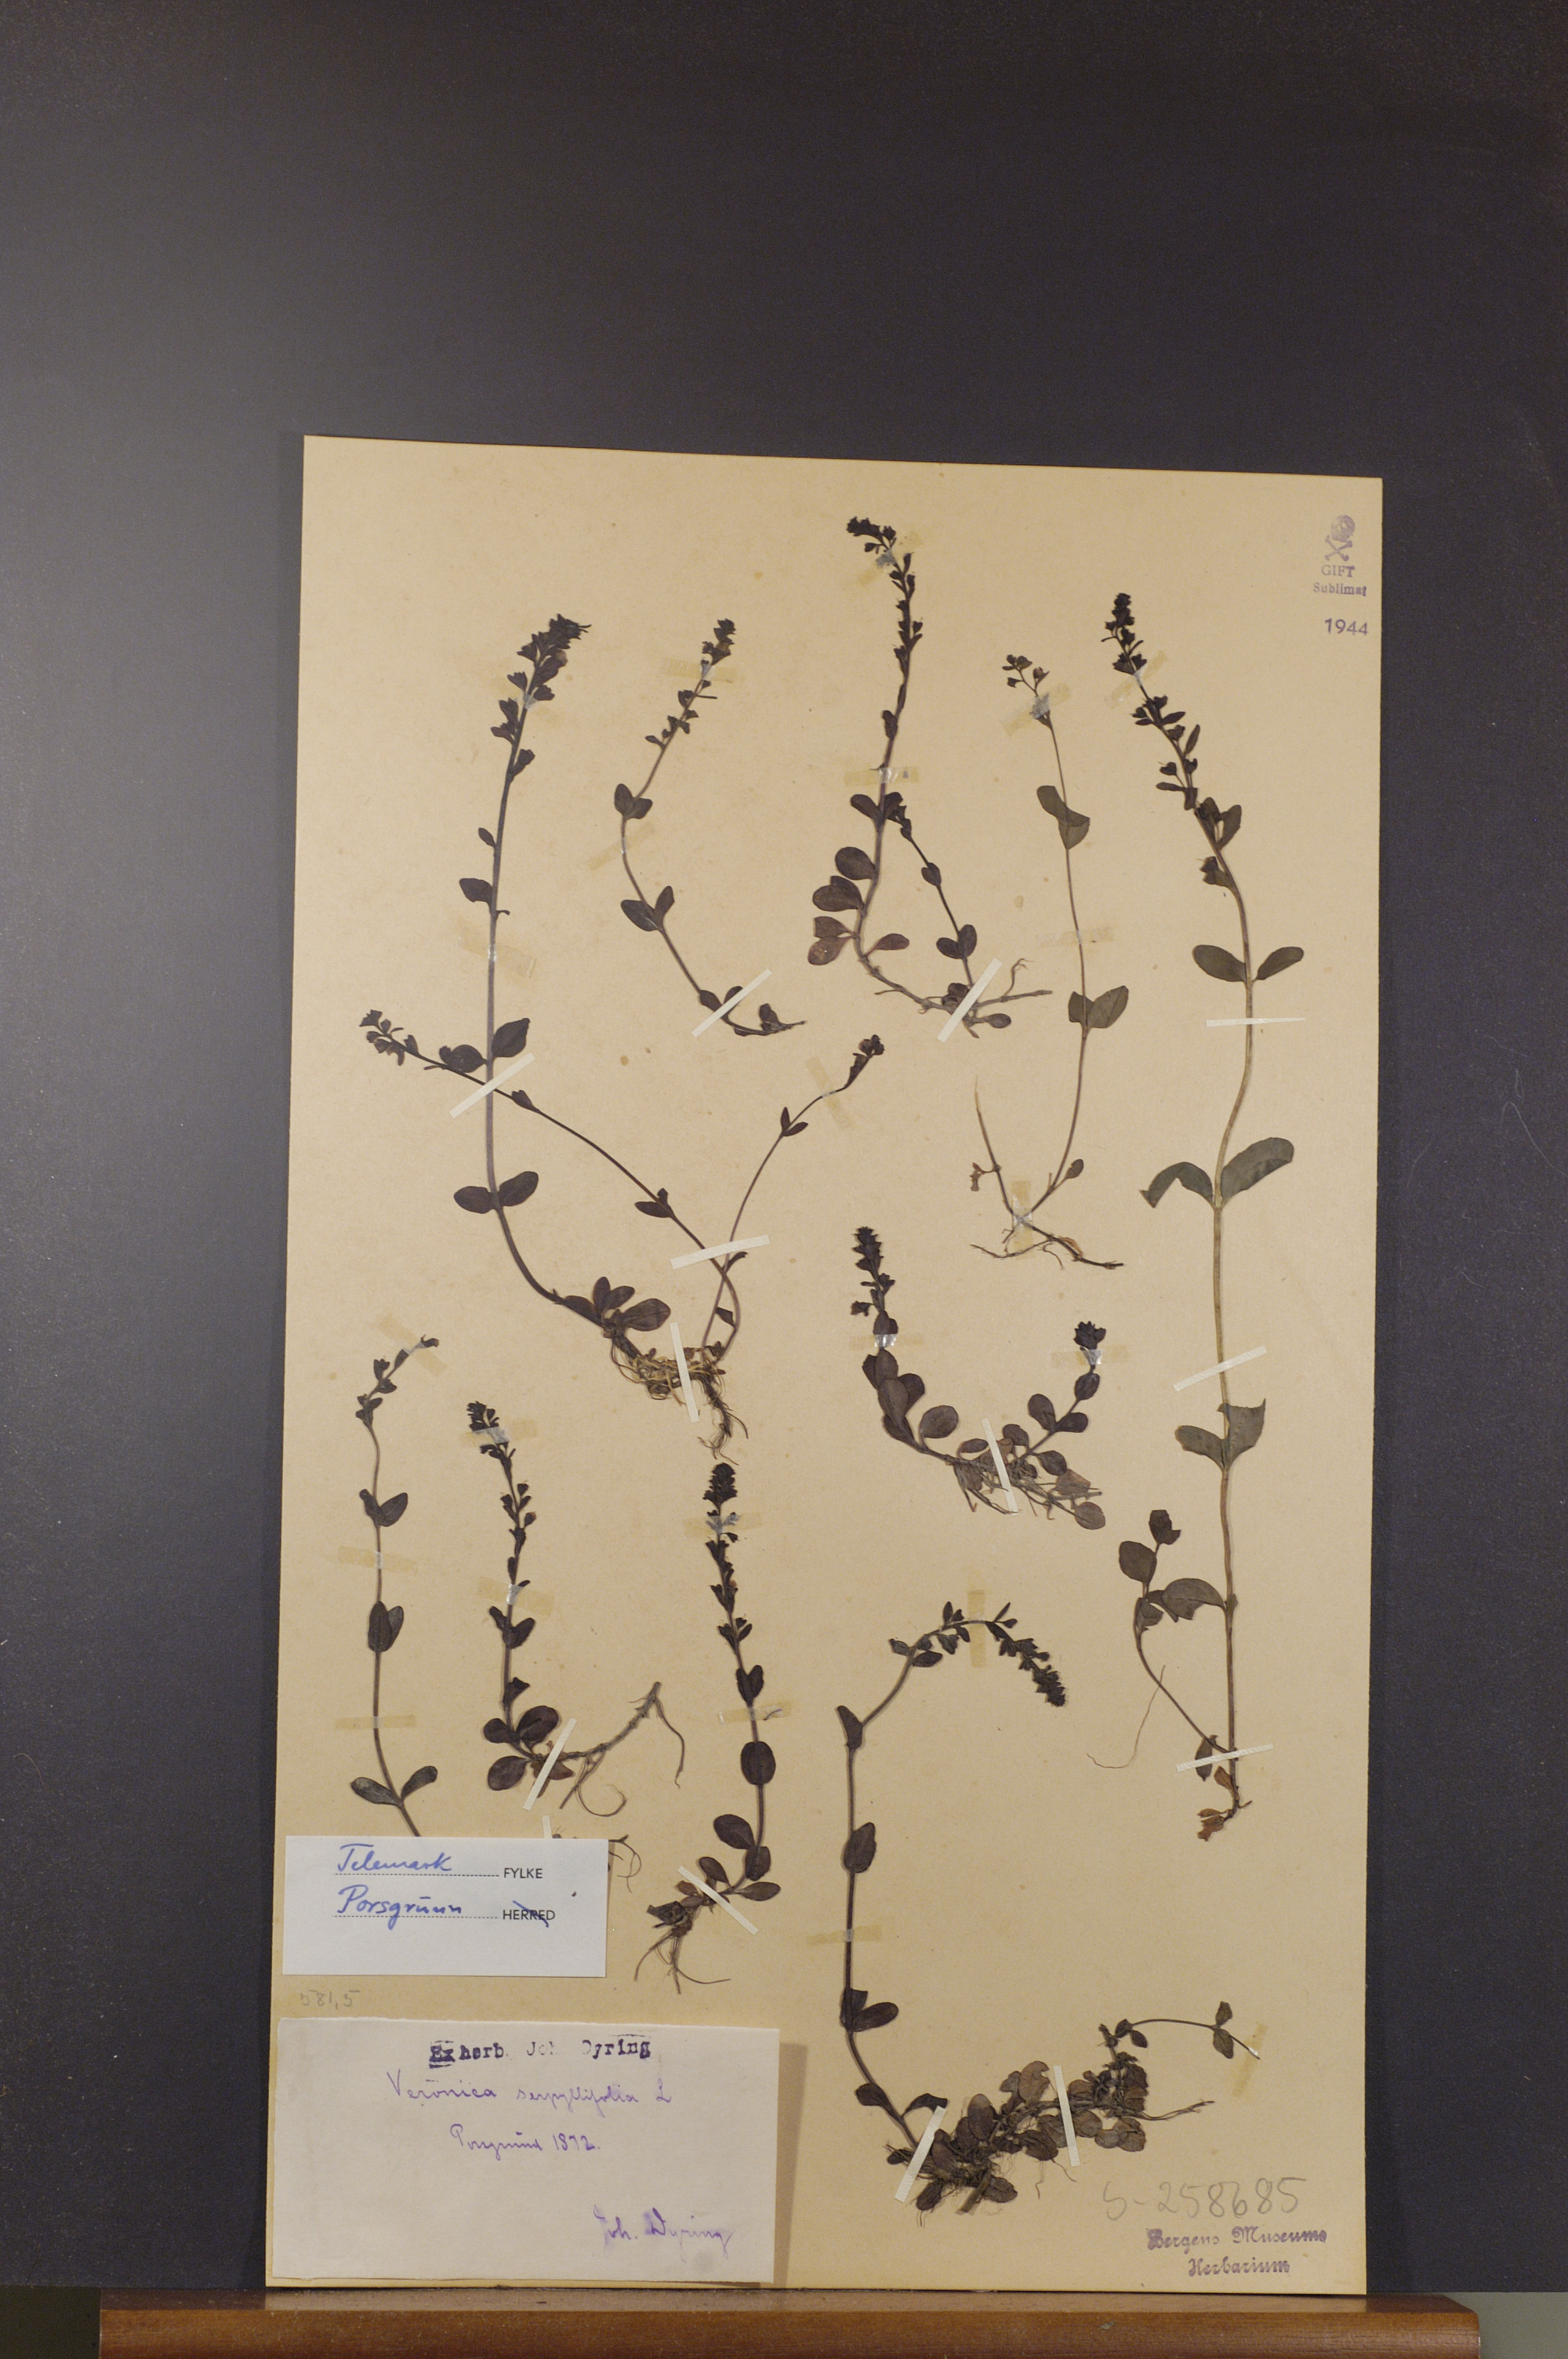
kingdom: Plantae
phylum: Tracheophyta
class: Magnoliopsida
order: Lamiales
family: Plantaginaceae
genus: Veronica
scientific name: Veronica serpyllifolia
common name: Thyme-leaved speedwell
